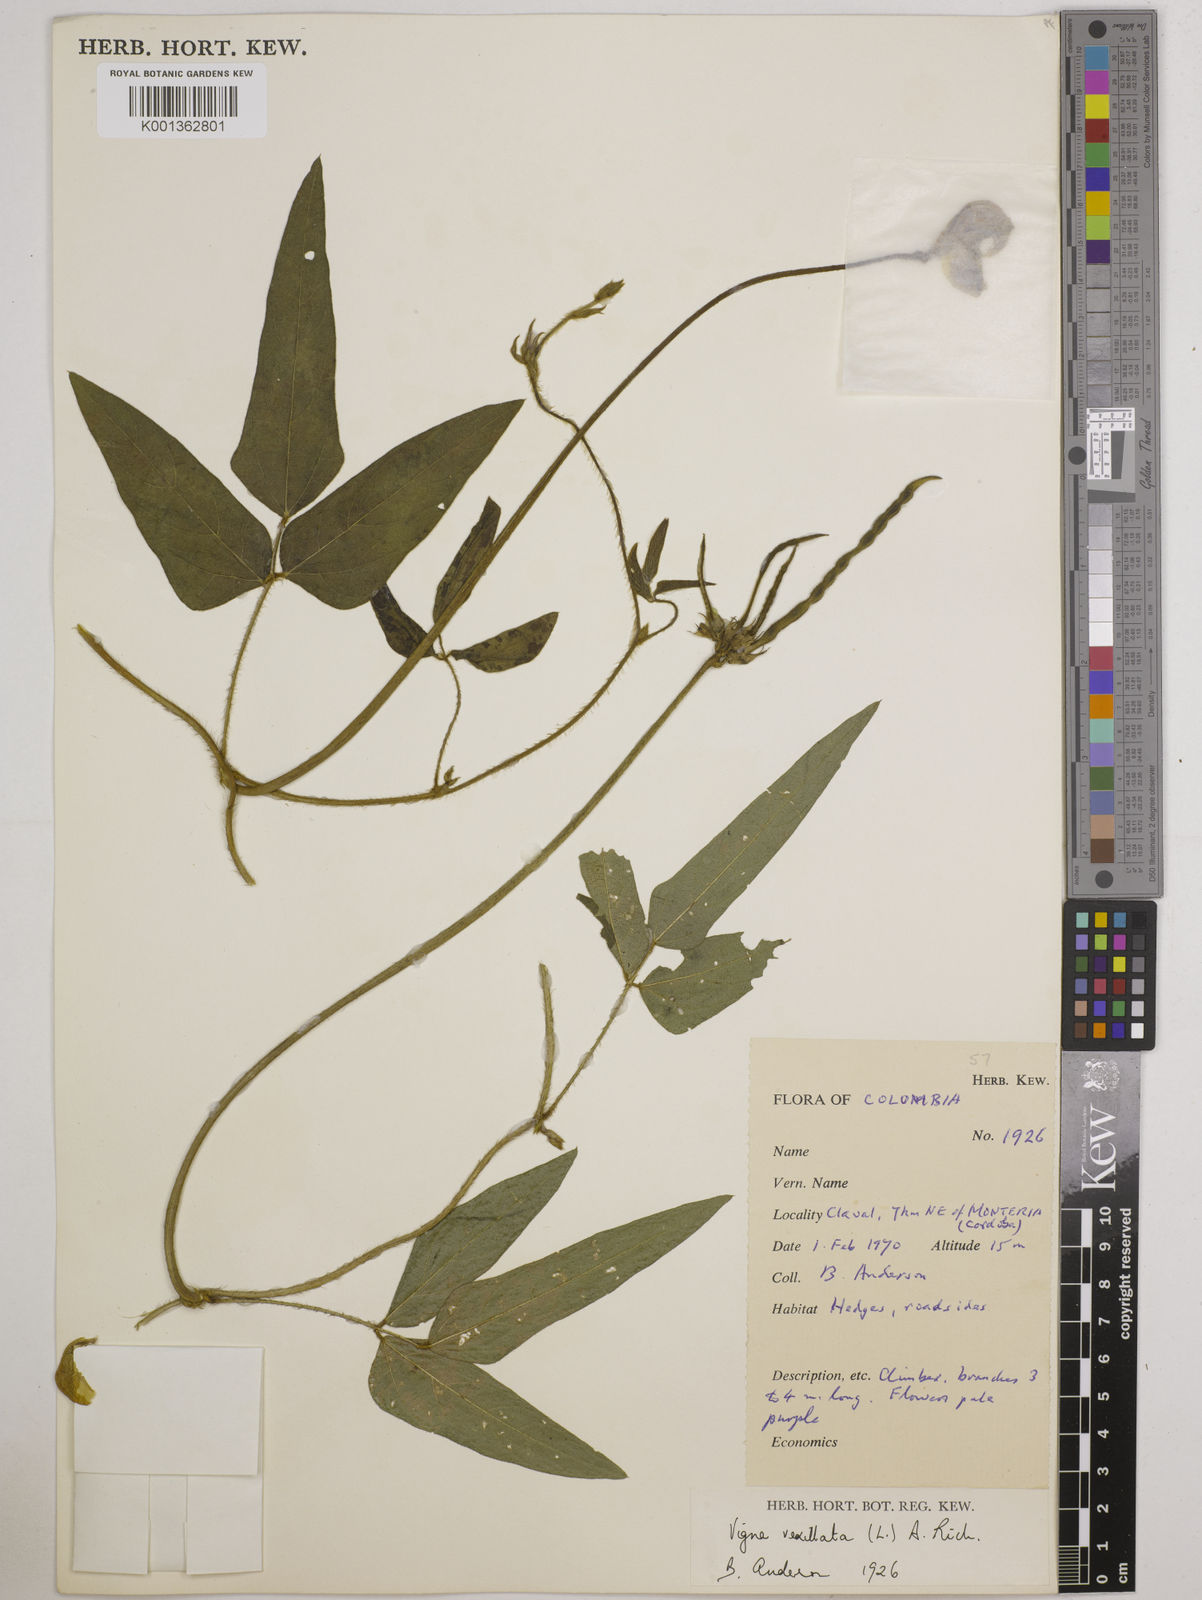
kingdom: Plantae
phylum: Tracheophyta
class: Magnoliopsida
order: Fabales
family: Fabaceae
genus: Vigna
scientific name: Vigna vexillata
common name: Zombi pea
